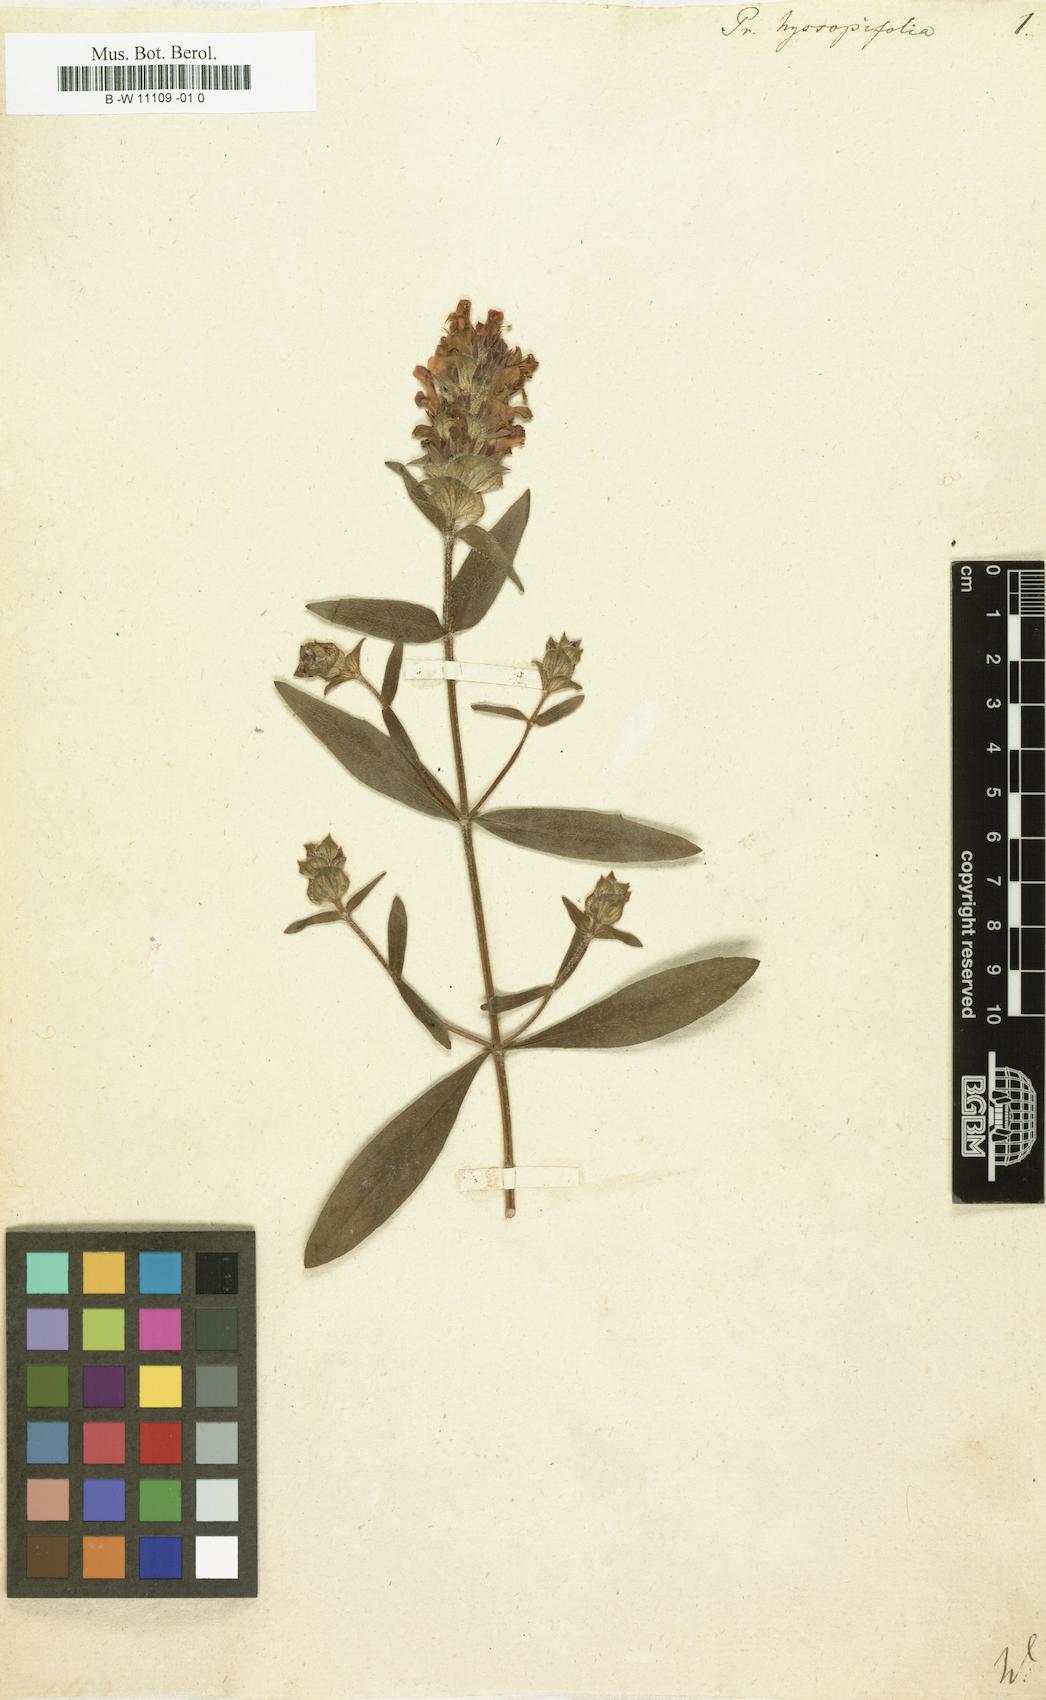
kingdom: Plantae
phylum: Tracheophyta
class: Magnoliopsida
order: Lamiales
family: Lamiaceae
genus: Prunella
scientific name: Prunella hyssopifolia
